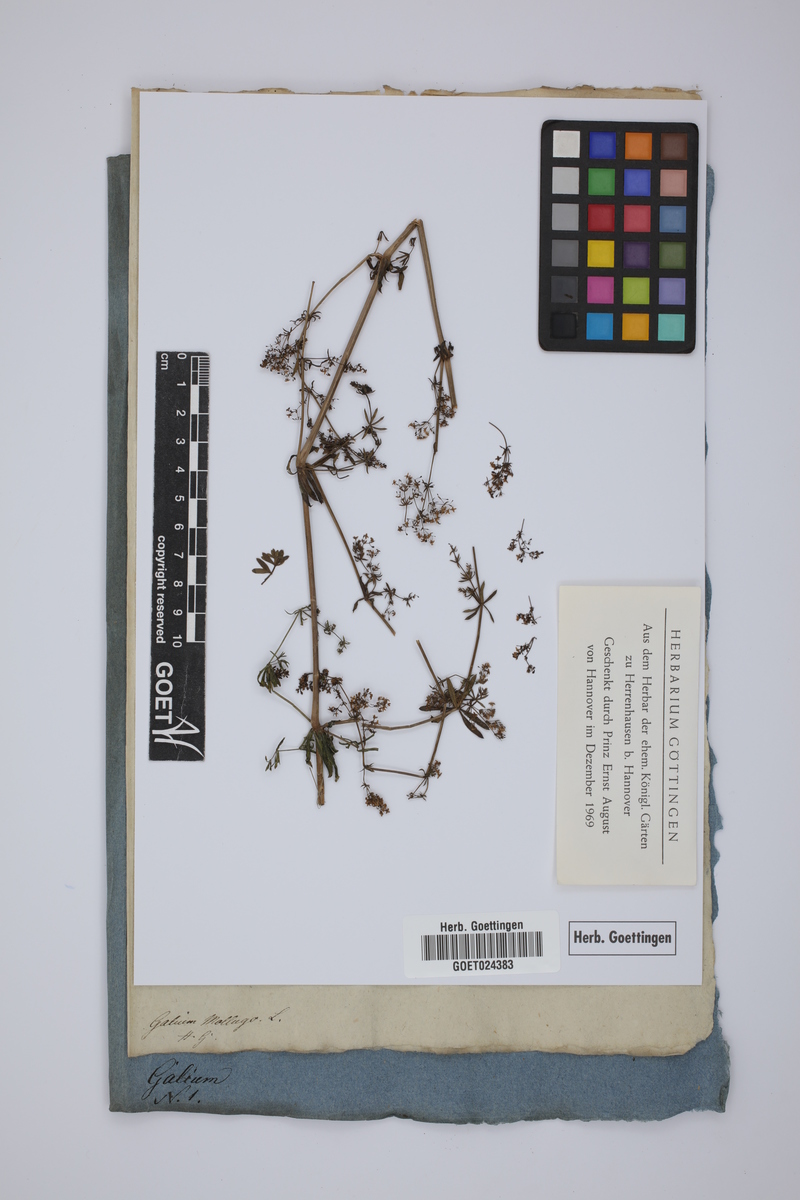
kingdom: Plantae
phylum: Tracheophyta
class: Magnoliopsida
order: Gentianales
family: Rubiaceae
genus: Galium
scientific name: Galium mollugo
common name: Hedge bedstraw
